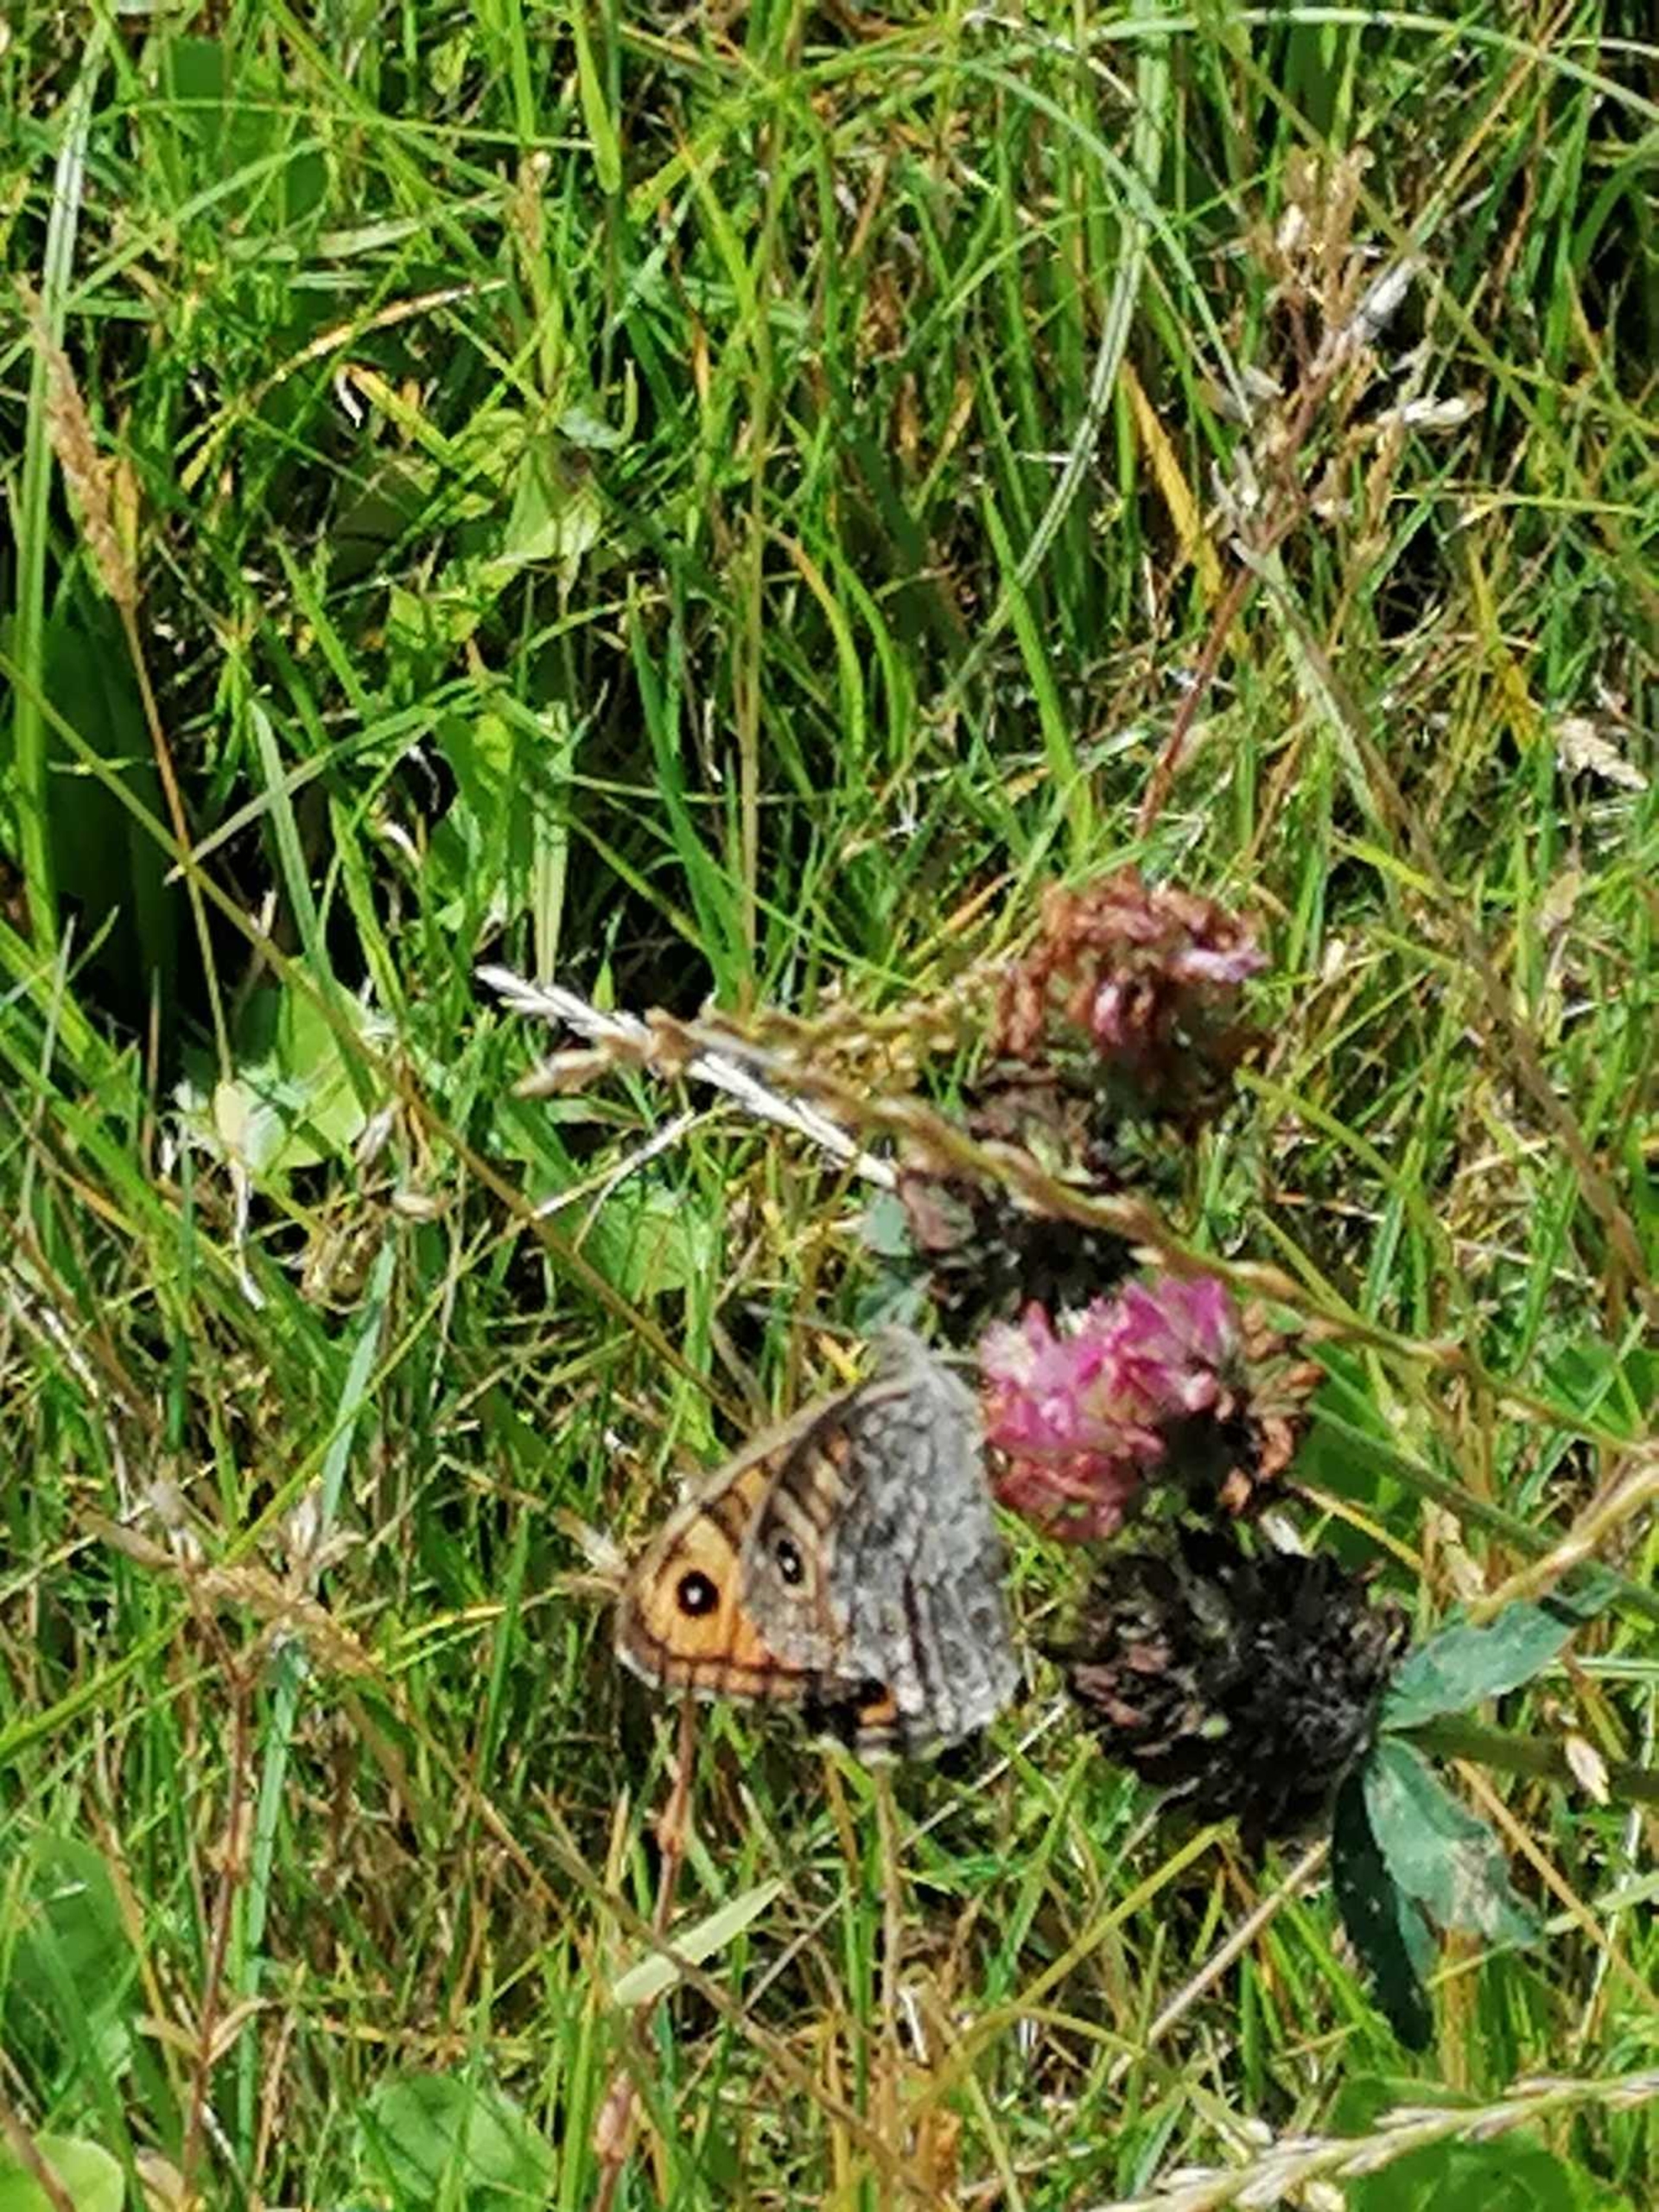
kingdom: Animalia
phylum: Arthropoda
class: Insecta
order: Lepidoptera
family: Nymphalidae
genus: Pararge
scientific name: Pararge Lasiommata megera
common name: Vejrandøje
